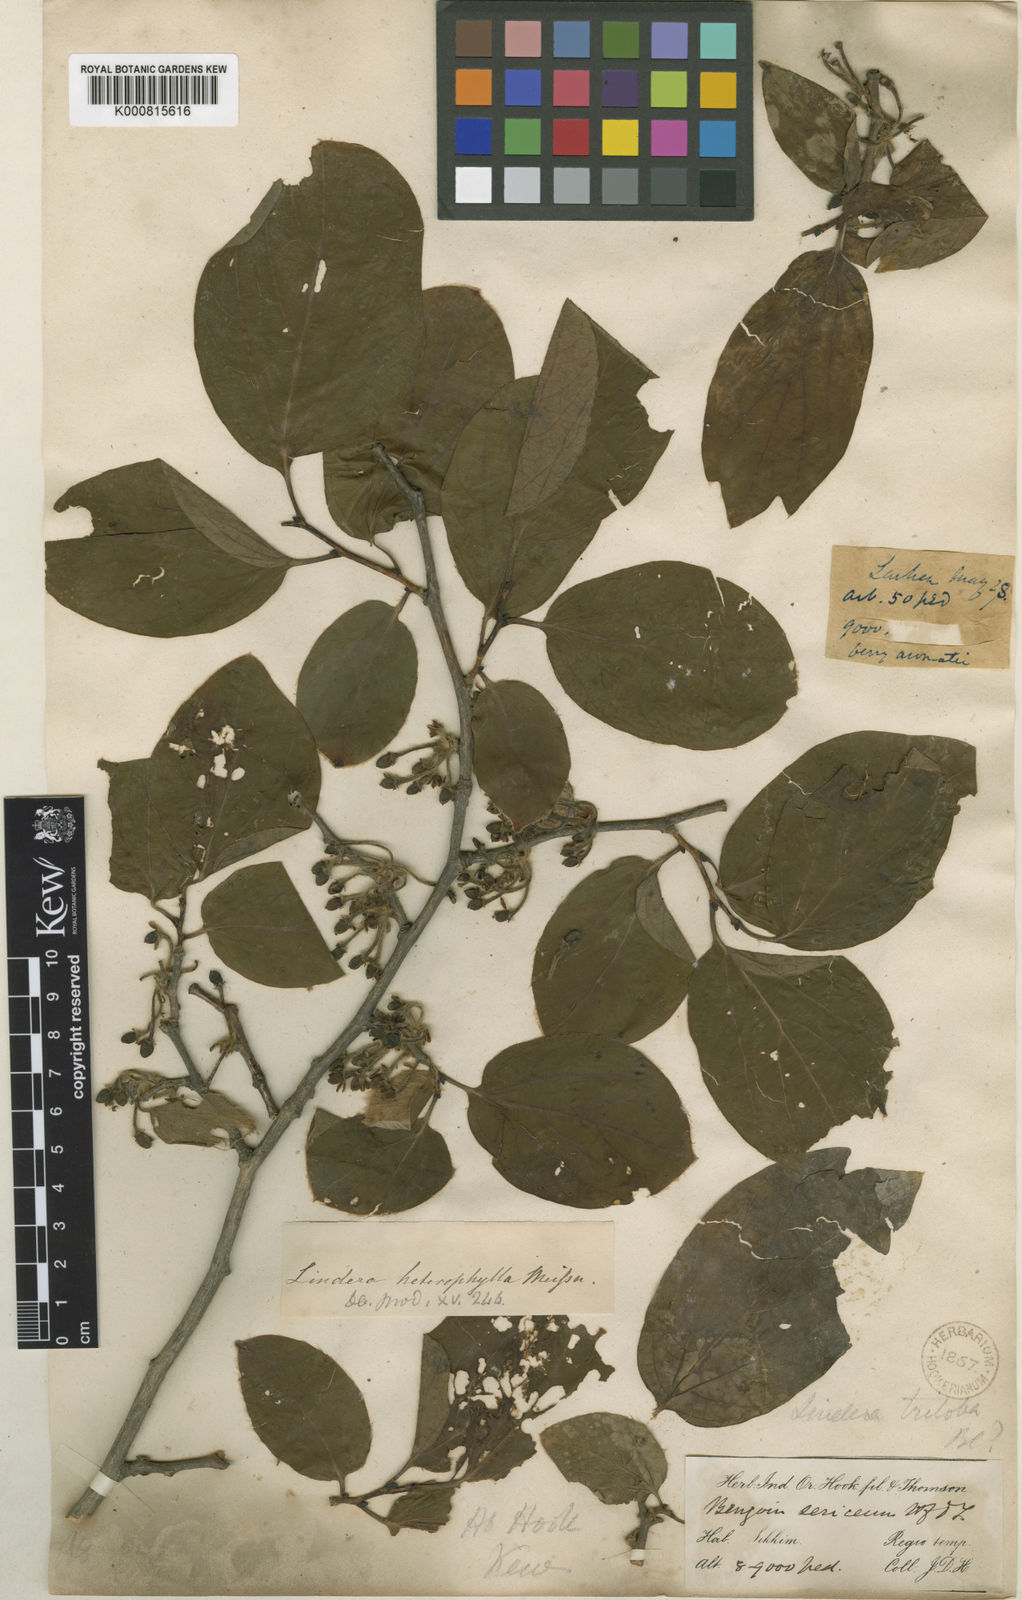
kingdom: Plantae
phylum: Tracheophyta
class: Magnoliopsida
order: Laurales
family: Lauraceae
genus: Lindera
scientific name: Lindera obtusiloba
